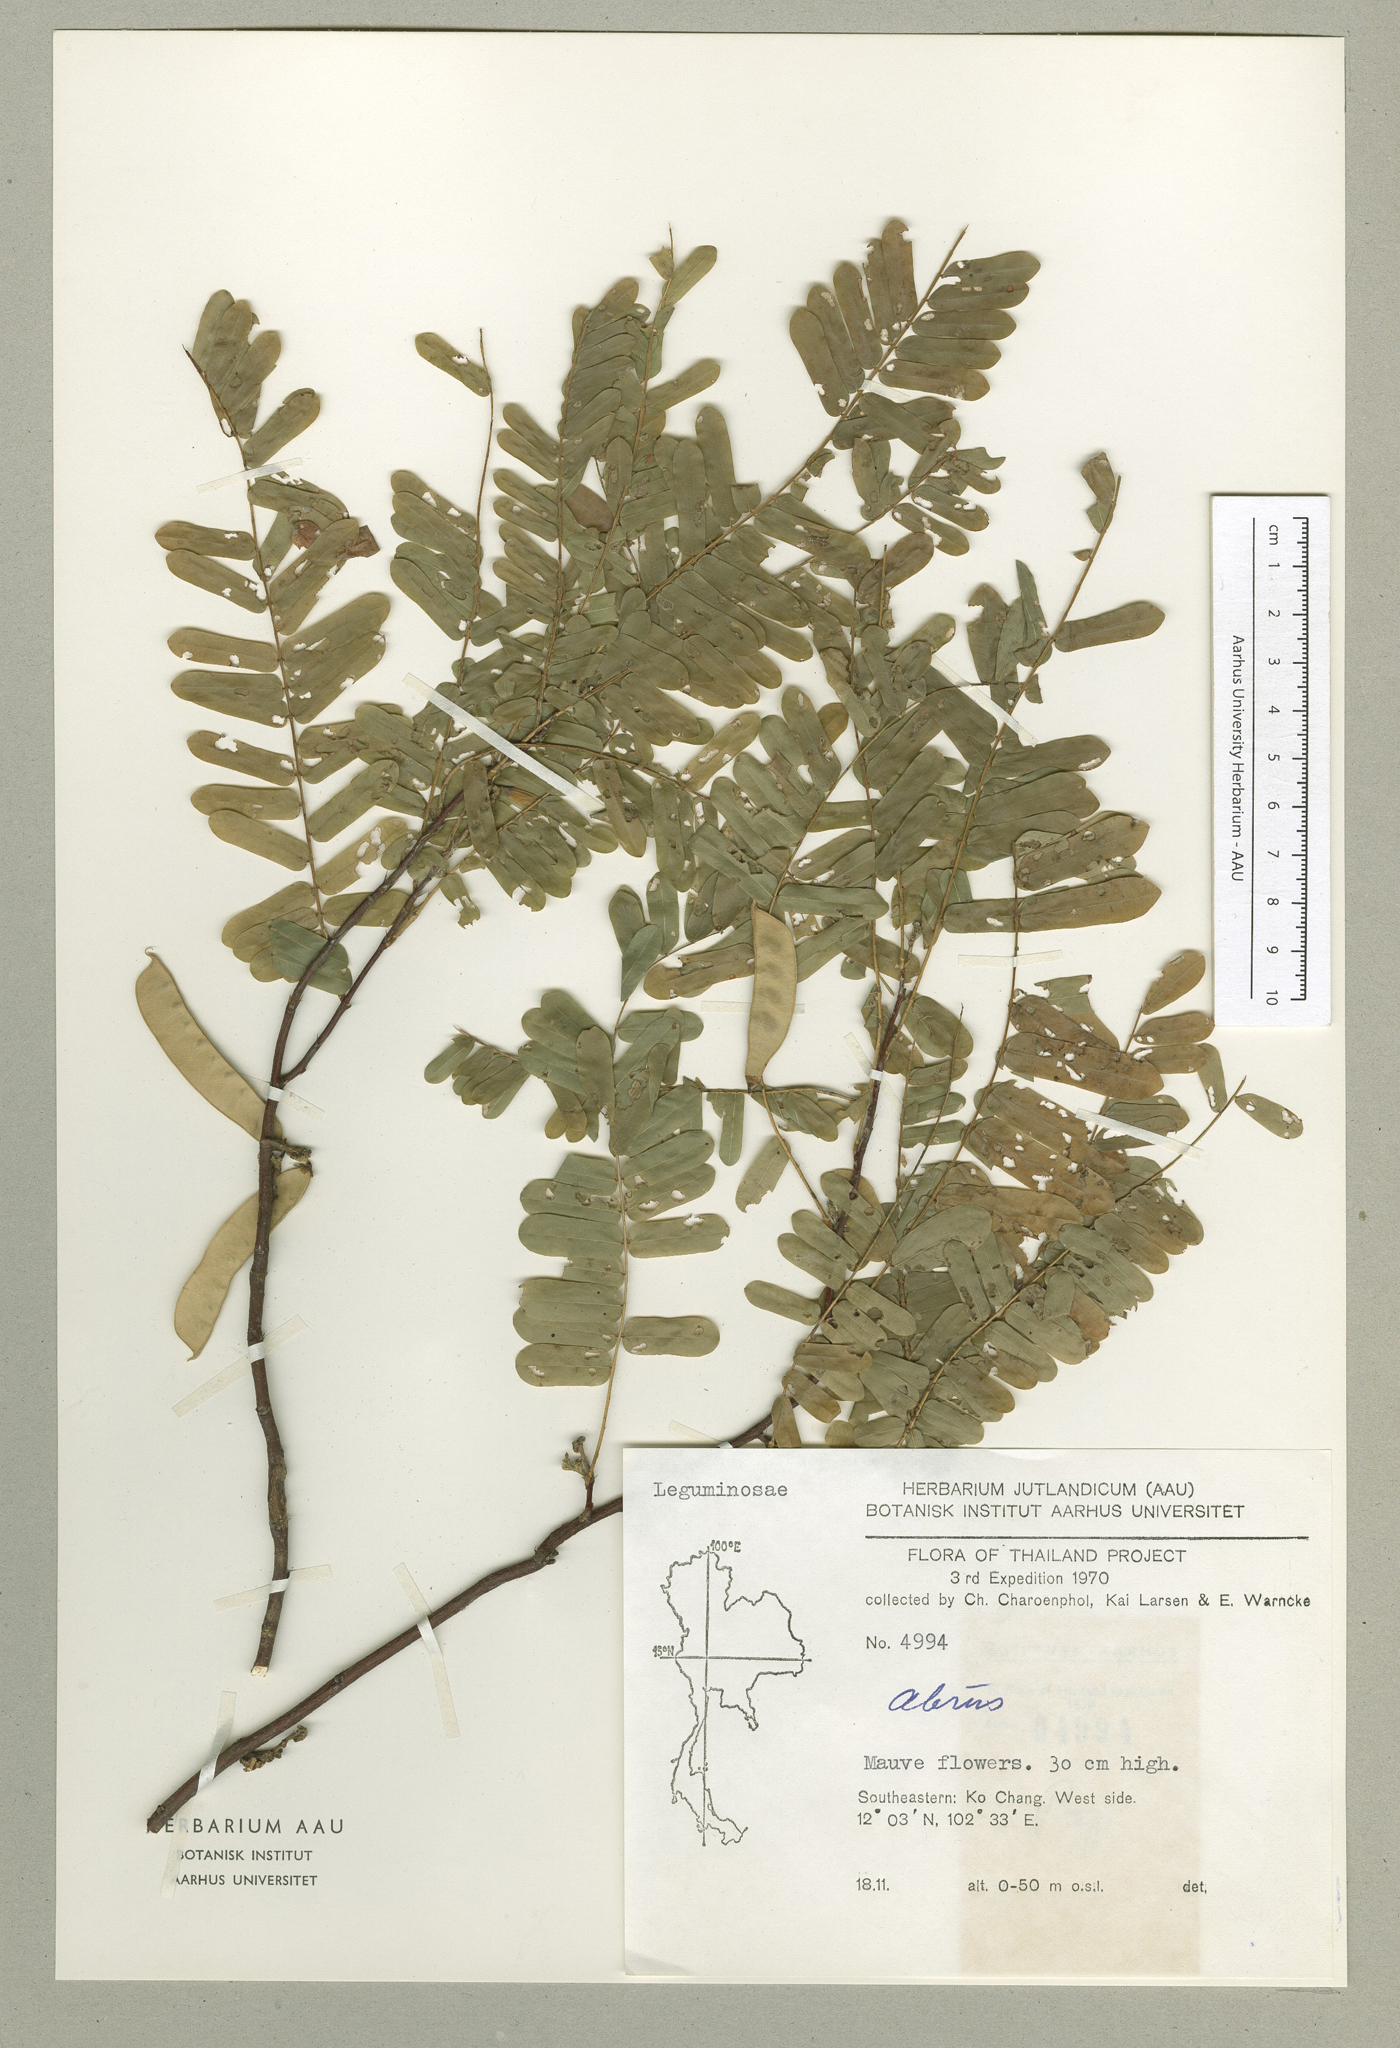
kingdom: Plantae
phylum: Tracheophyta
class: Magnoliopsida
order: Fabales
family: Fabaceae
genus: Abrus
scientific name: Abrus fruticulosus
